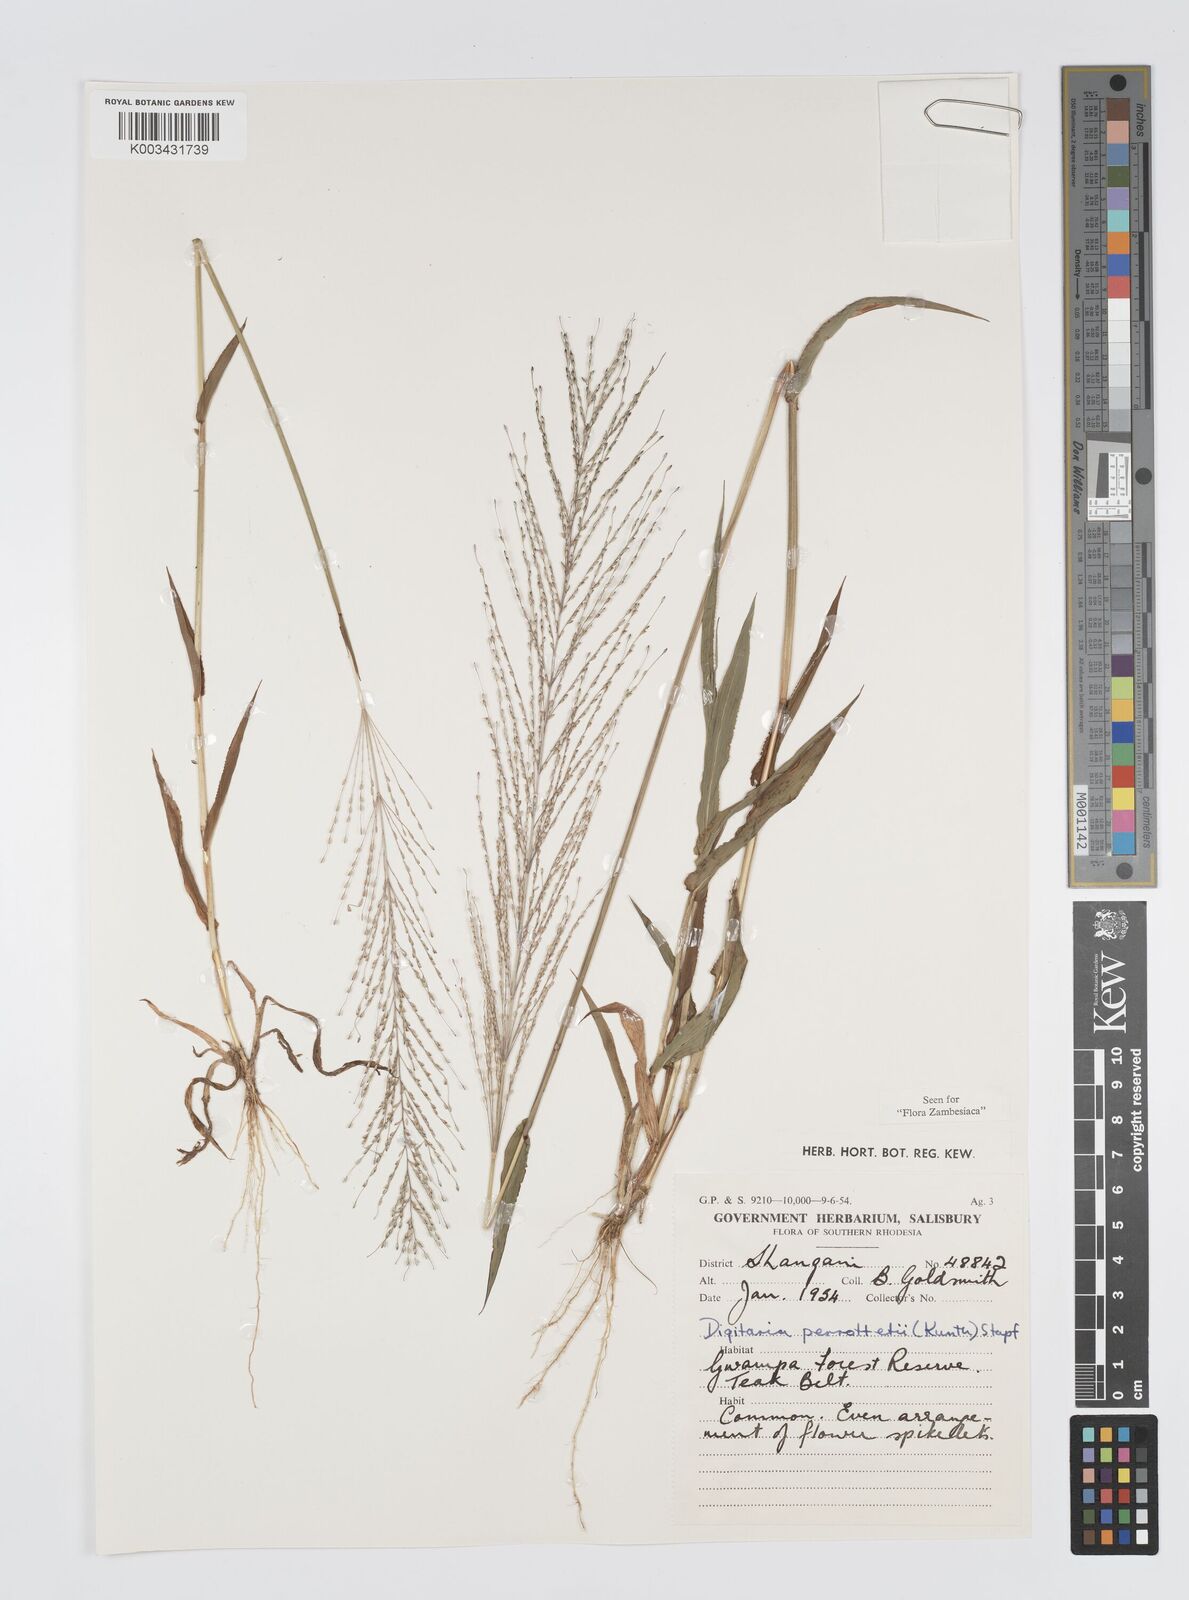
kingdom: Plantae
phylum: Tracheophyta
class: Liliopsida
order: Poales
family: Poaceae
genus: Digitaria
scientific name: Digitaria perrottetii
